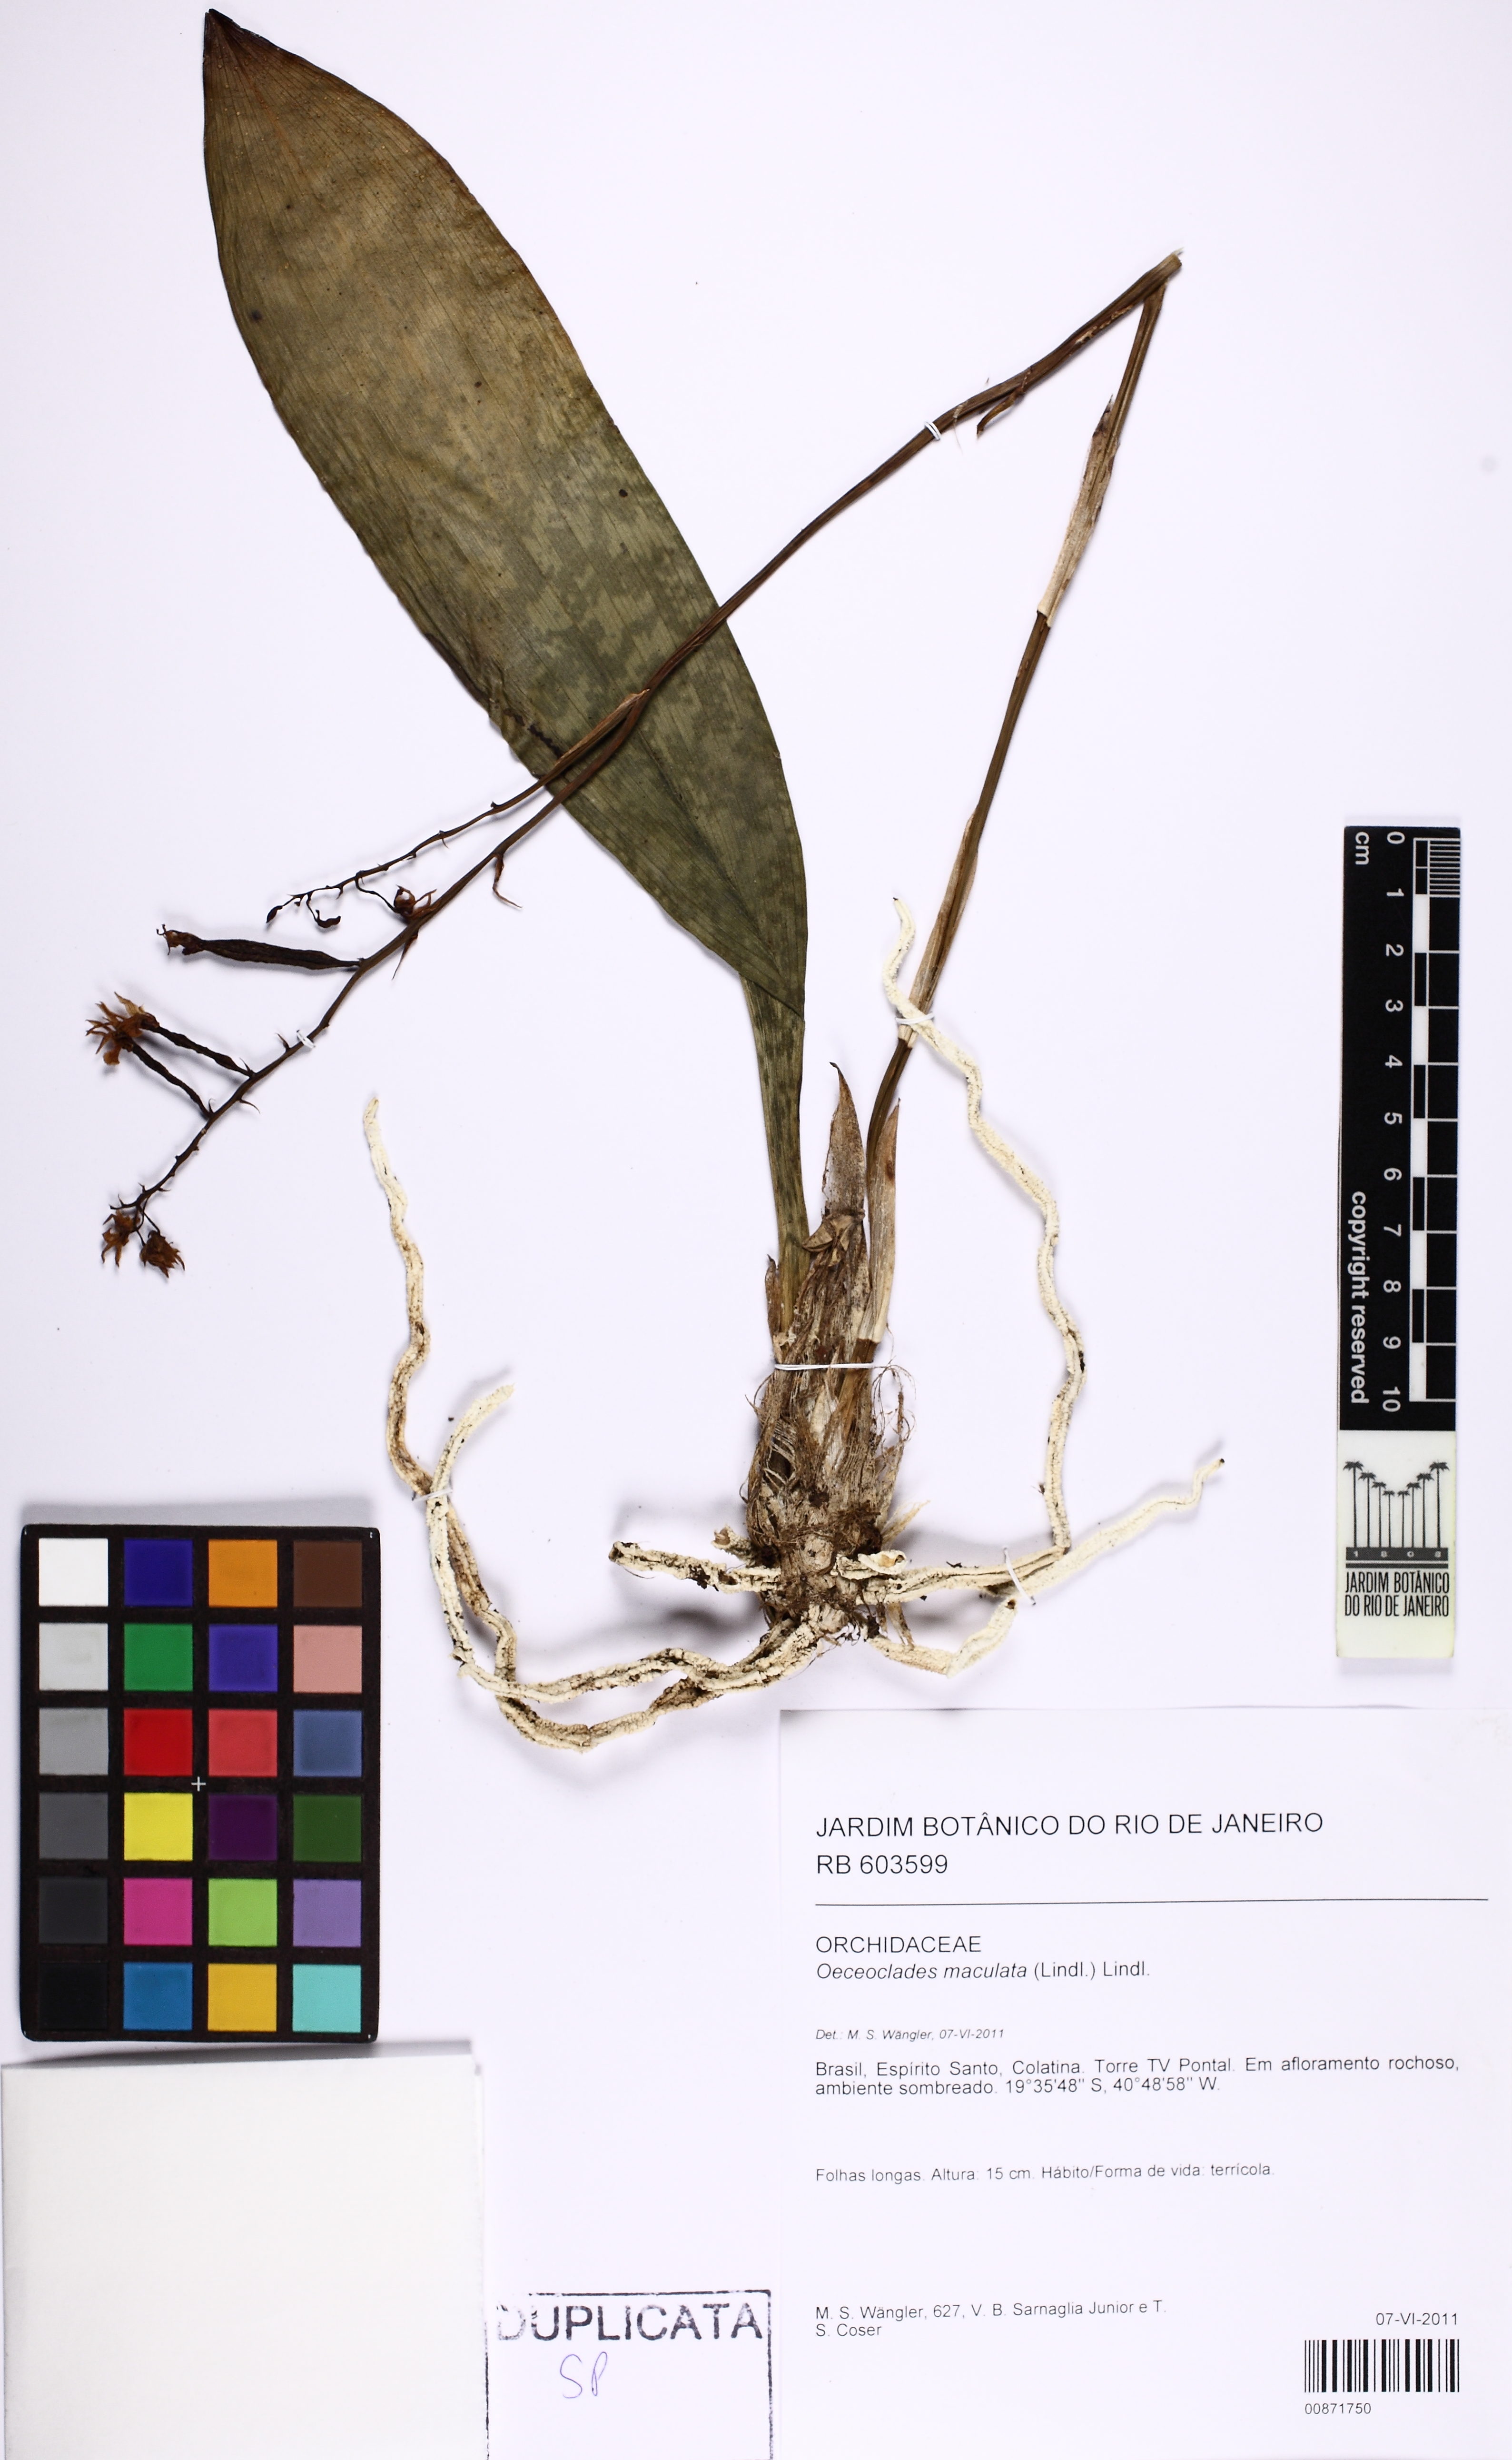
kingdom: Plantae
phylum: Tracheophyta
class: Liliopsida
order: Asparagales
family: Orchidaceae
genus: Eulophia
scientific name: Eulophia maculata
